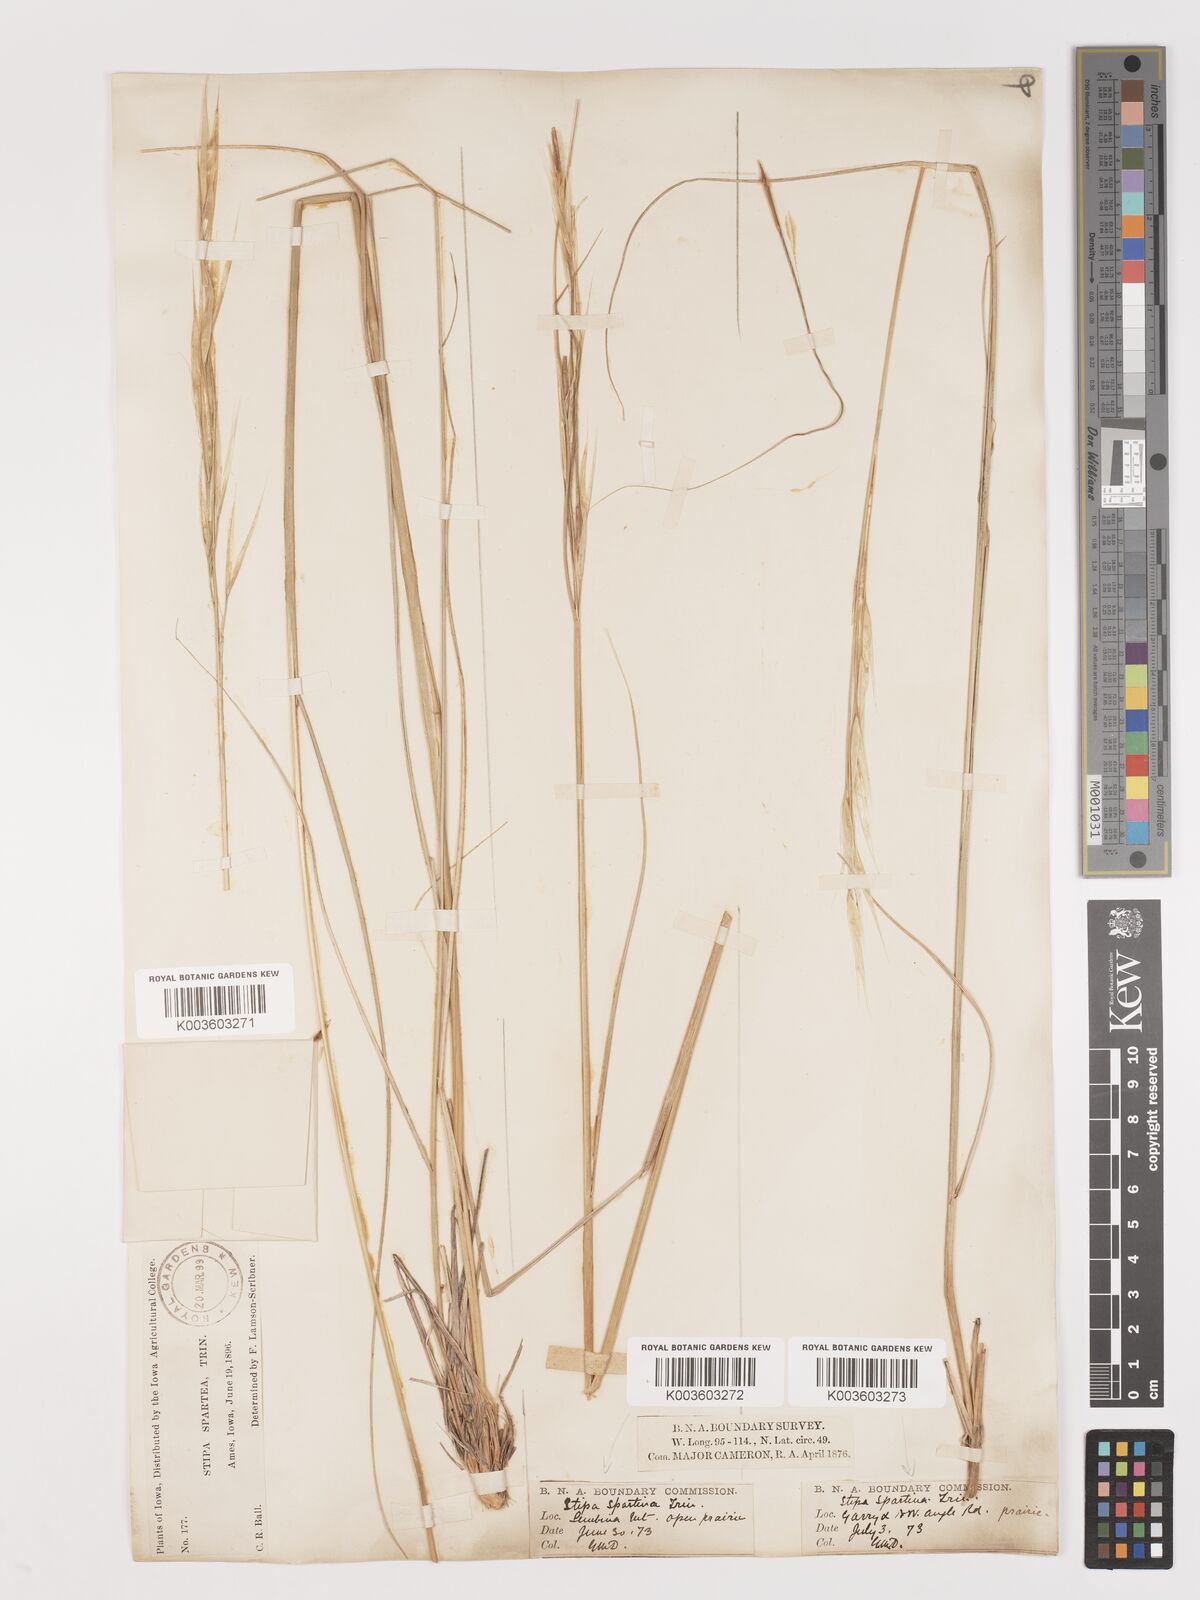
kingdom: Plantae
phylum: Tracheophyta
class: Liliopsida
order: Poales
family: Poaceae
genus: Hesperostipa
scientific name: Hesperostipa spartea
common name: Porcupine grass
